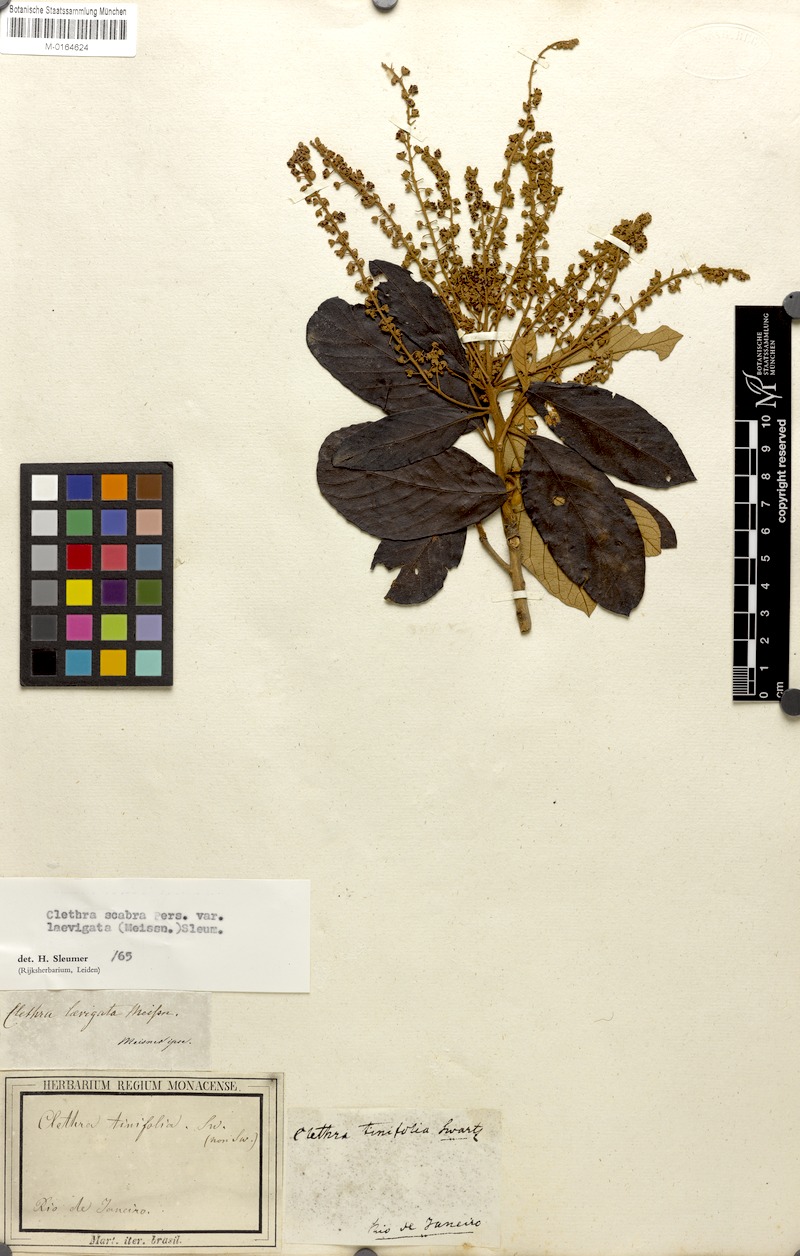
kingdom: Plantae
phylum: Tracheophyta
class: Magnoliopsida
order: Ericales
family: Clethraceae
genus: Clethra
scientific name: Clethra scabra
